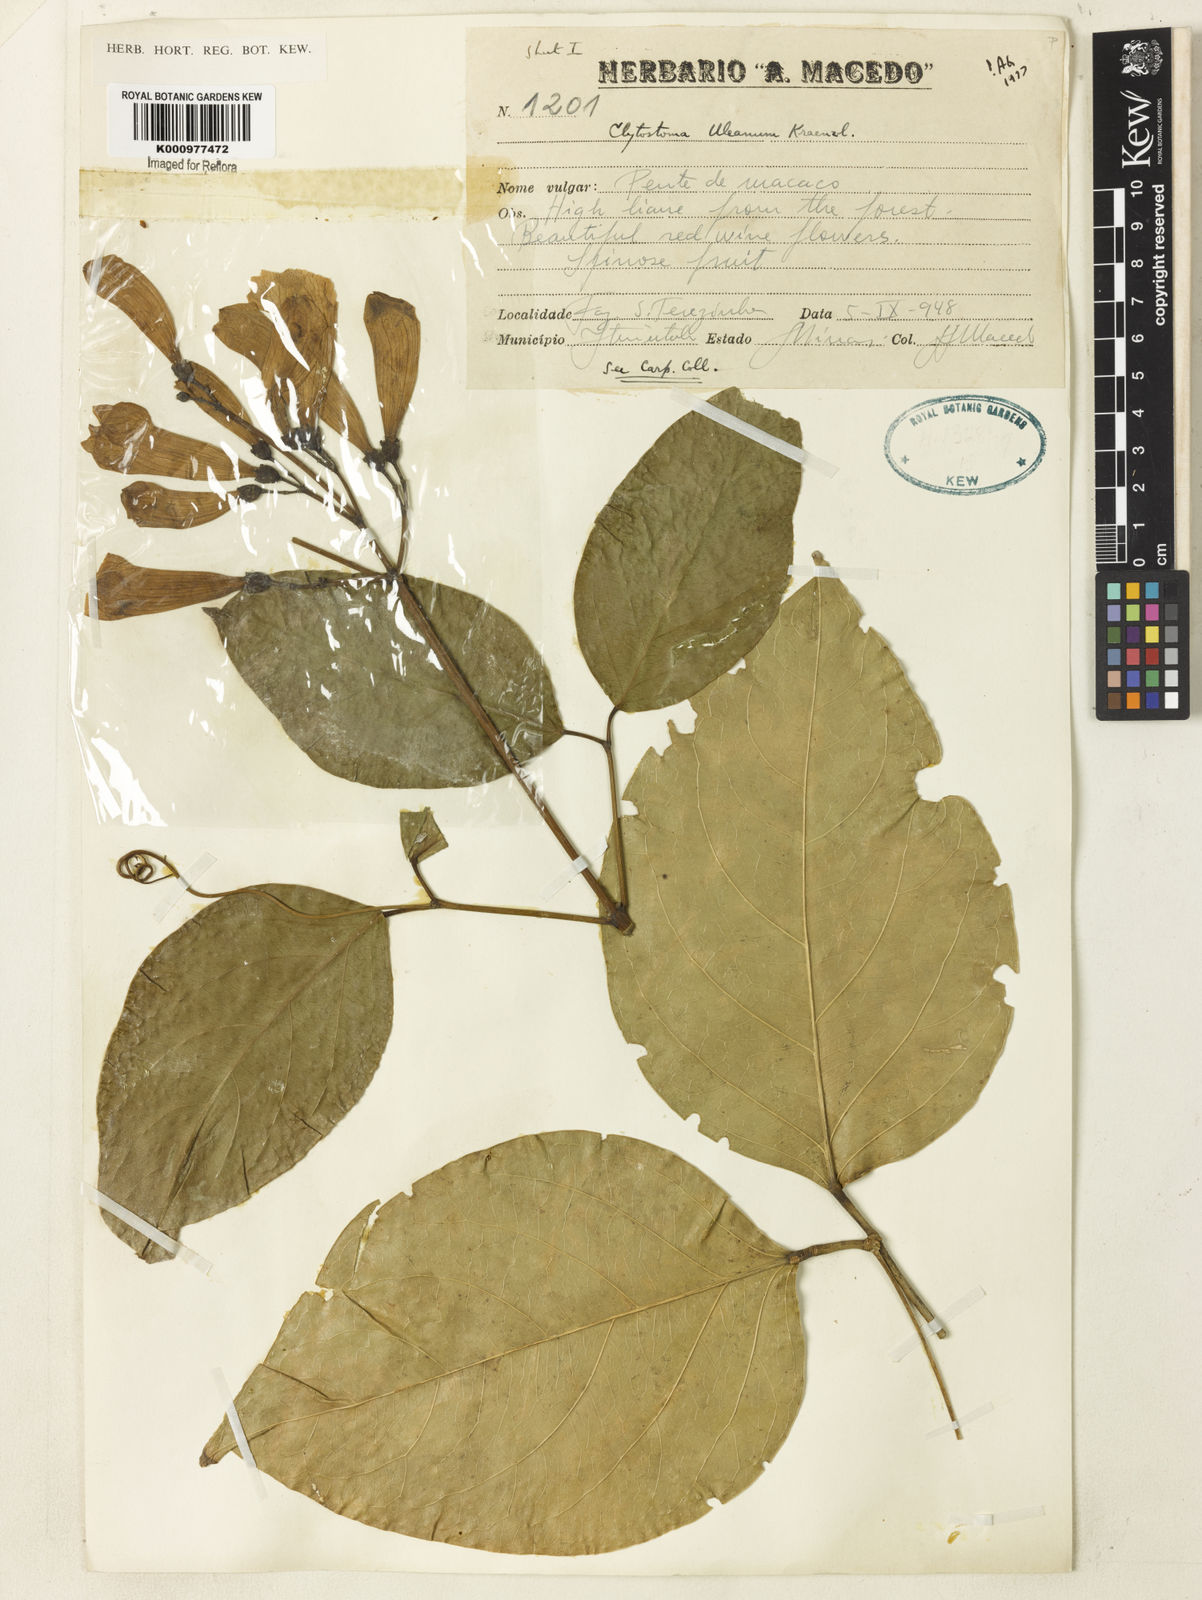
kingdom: Plantae
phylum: Tracheophyta
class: Magnoliopsida
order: Lamiales
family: Bignoniaceae
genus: Bignonia
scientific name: Bignonia uleana
